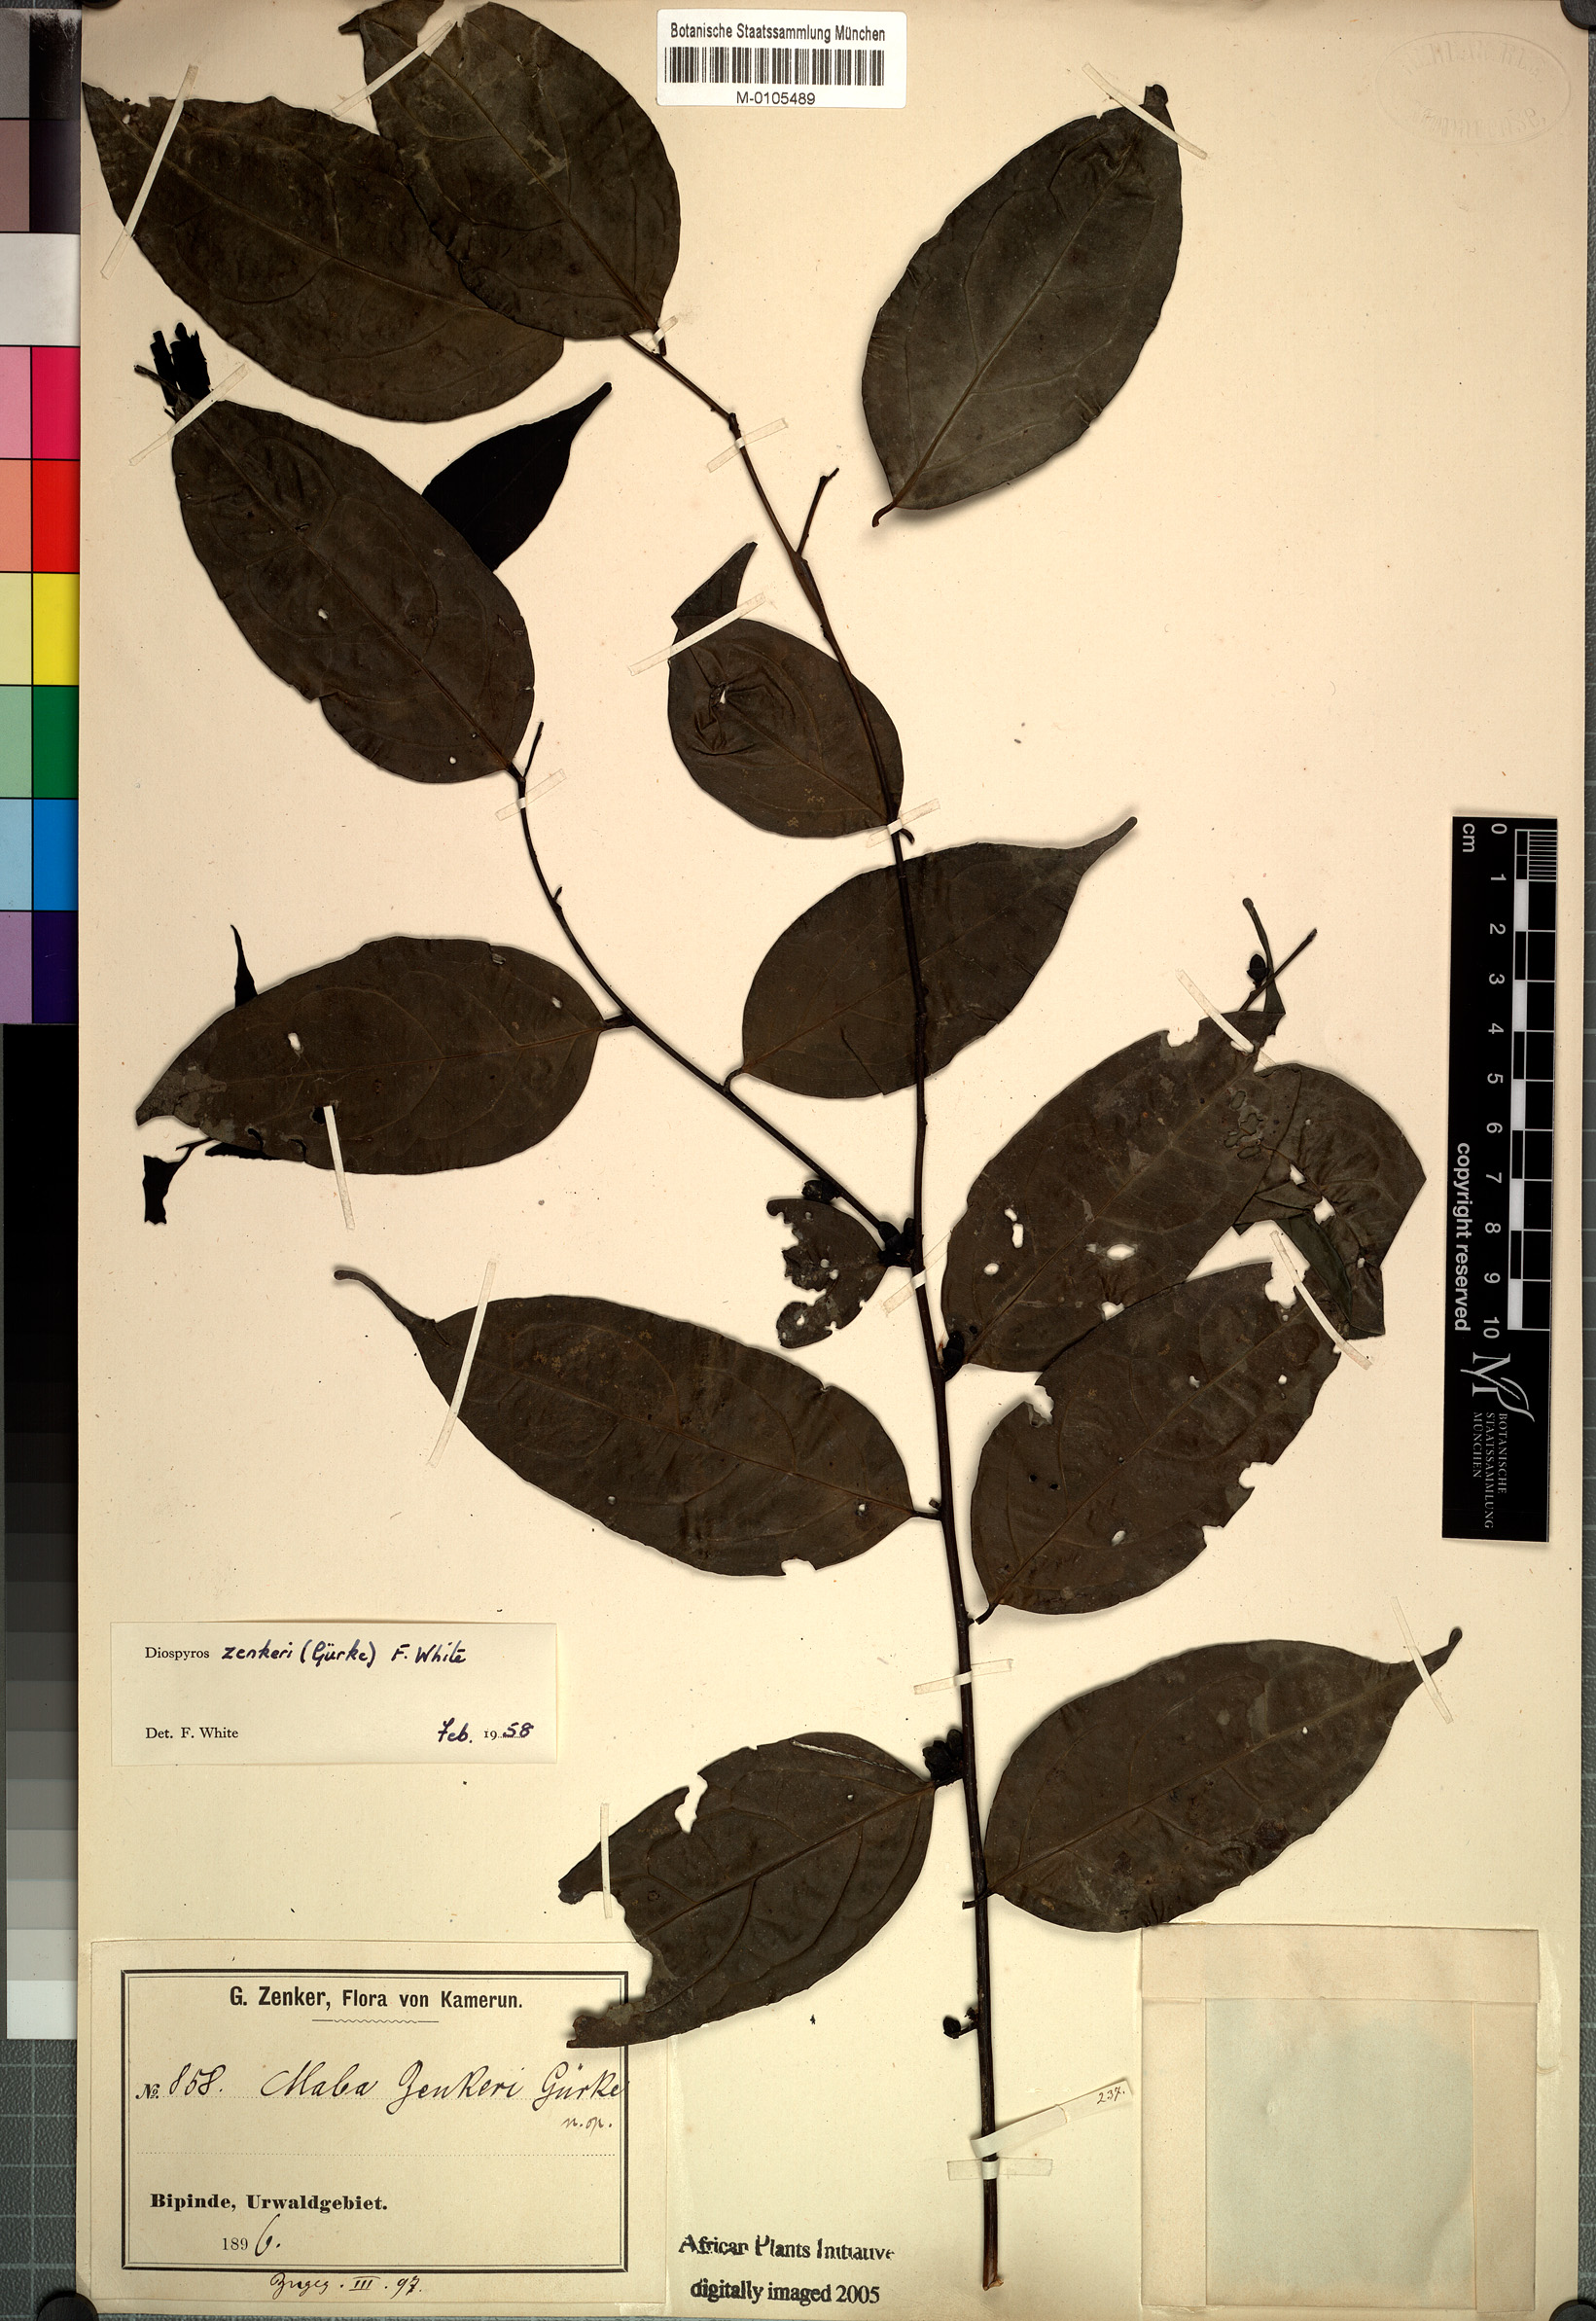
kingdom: Plantae
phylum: Tracheophyta
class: Magnoliopsida
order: Ericales
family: Ebenaceae
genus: Diospyros
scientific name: Diospyros zenkeri
